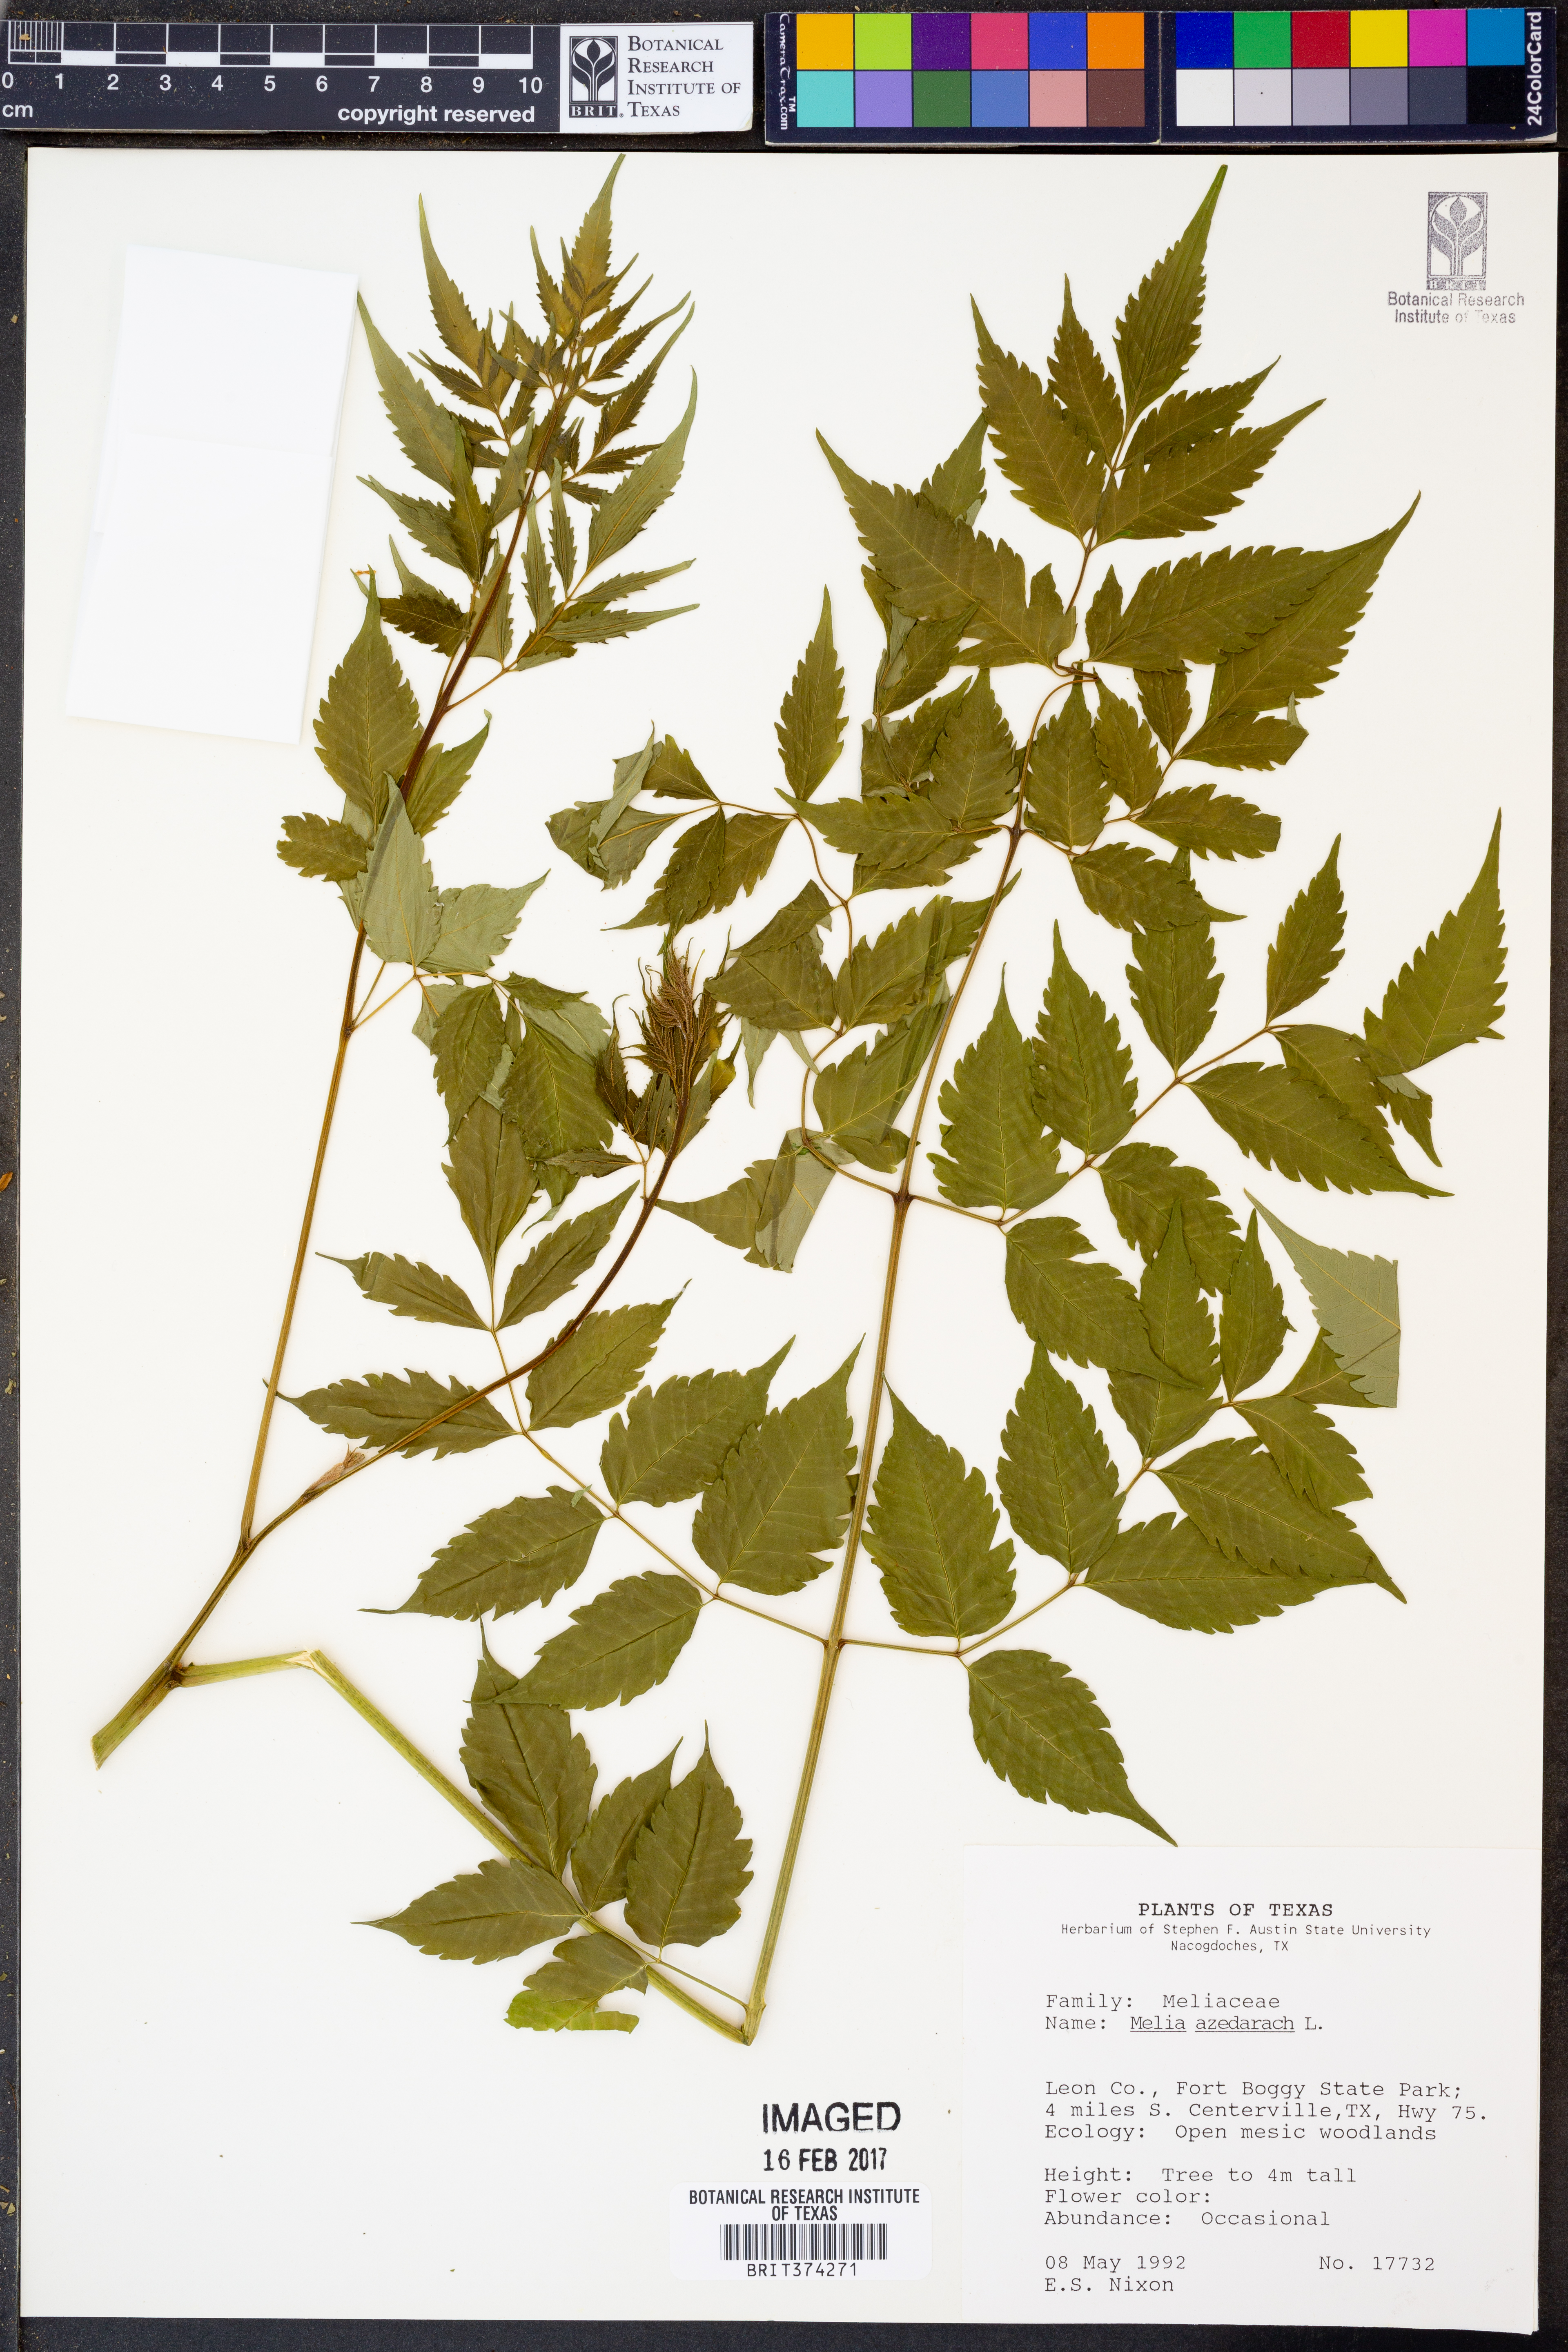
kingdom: Plantae
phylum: Tracheophyta
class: Magnoliopsida
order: Sapindales
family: Meliaceae
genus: Melia
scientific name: Melia azedarach
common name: Chinaberrytree
